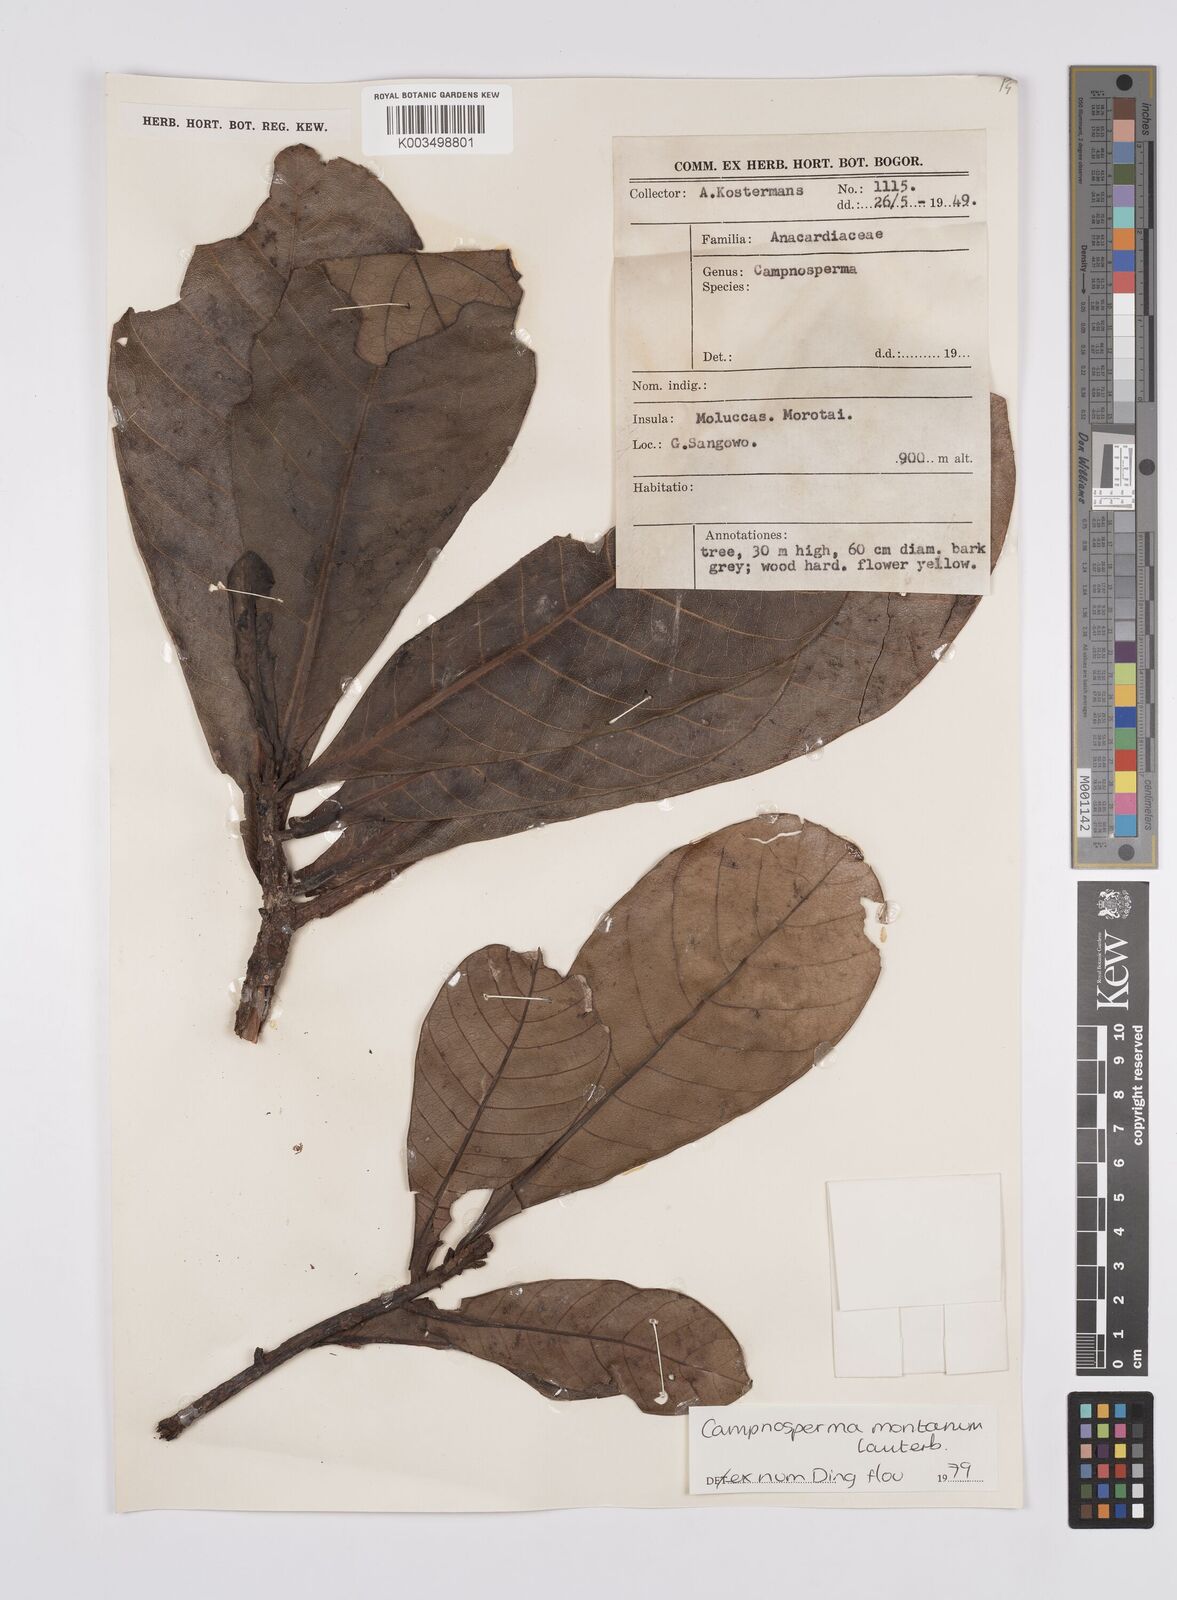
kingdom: Plantae
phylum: Tracheophyta
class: Magnoliopsida
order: Sapindales
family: Anacardiaceae
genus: Campnosperma
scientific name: Campnosperma montanum
